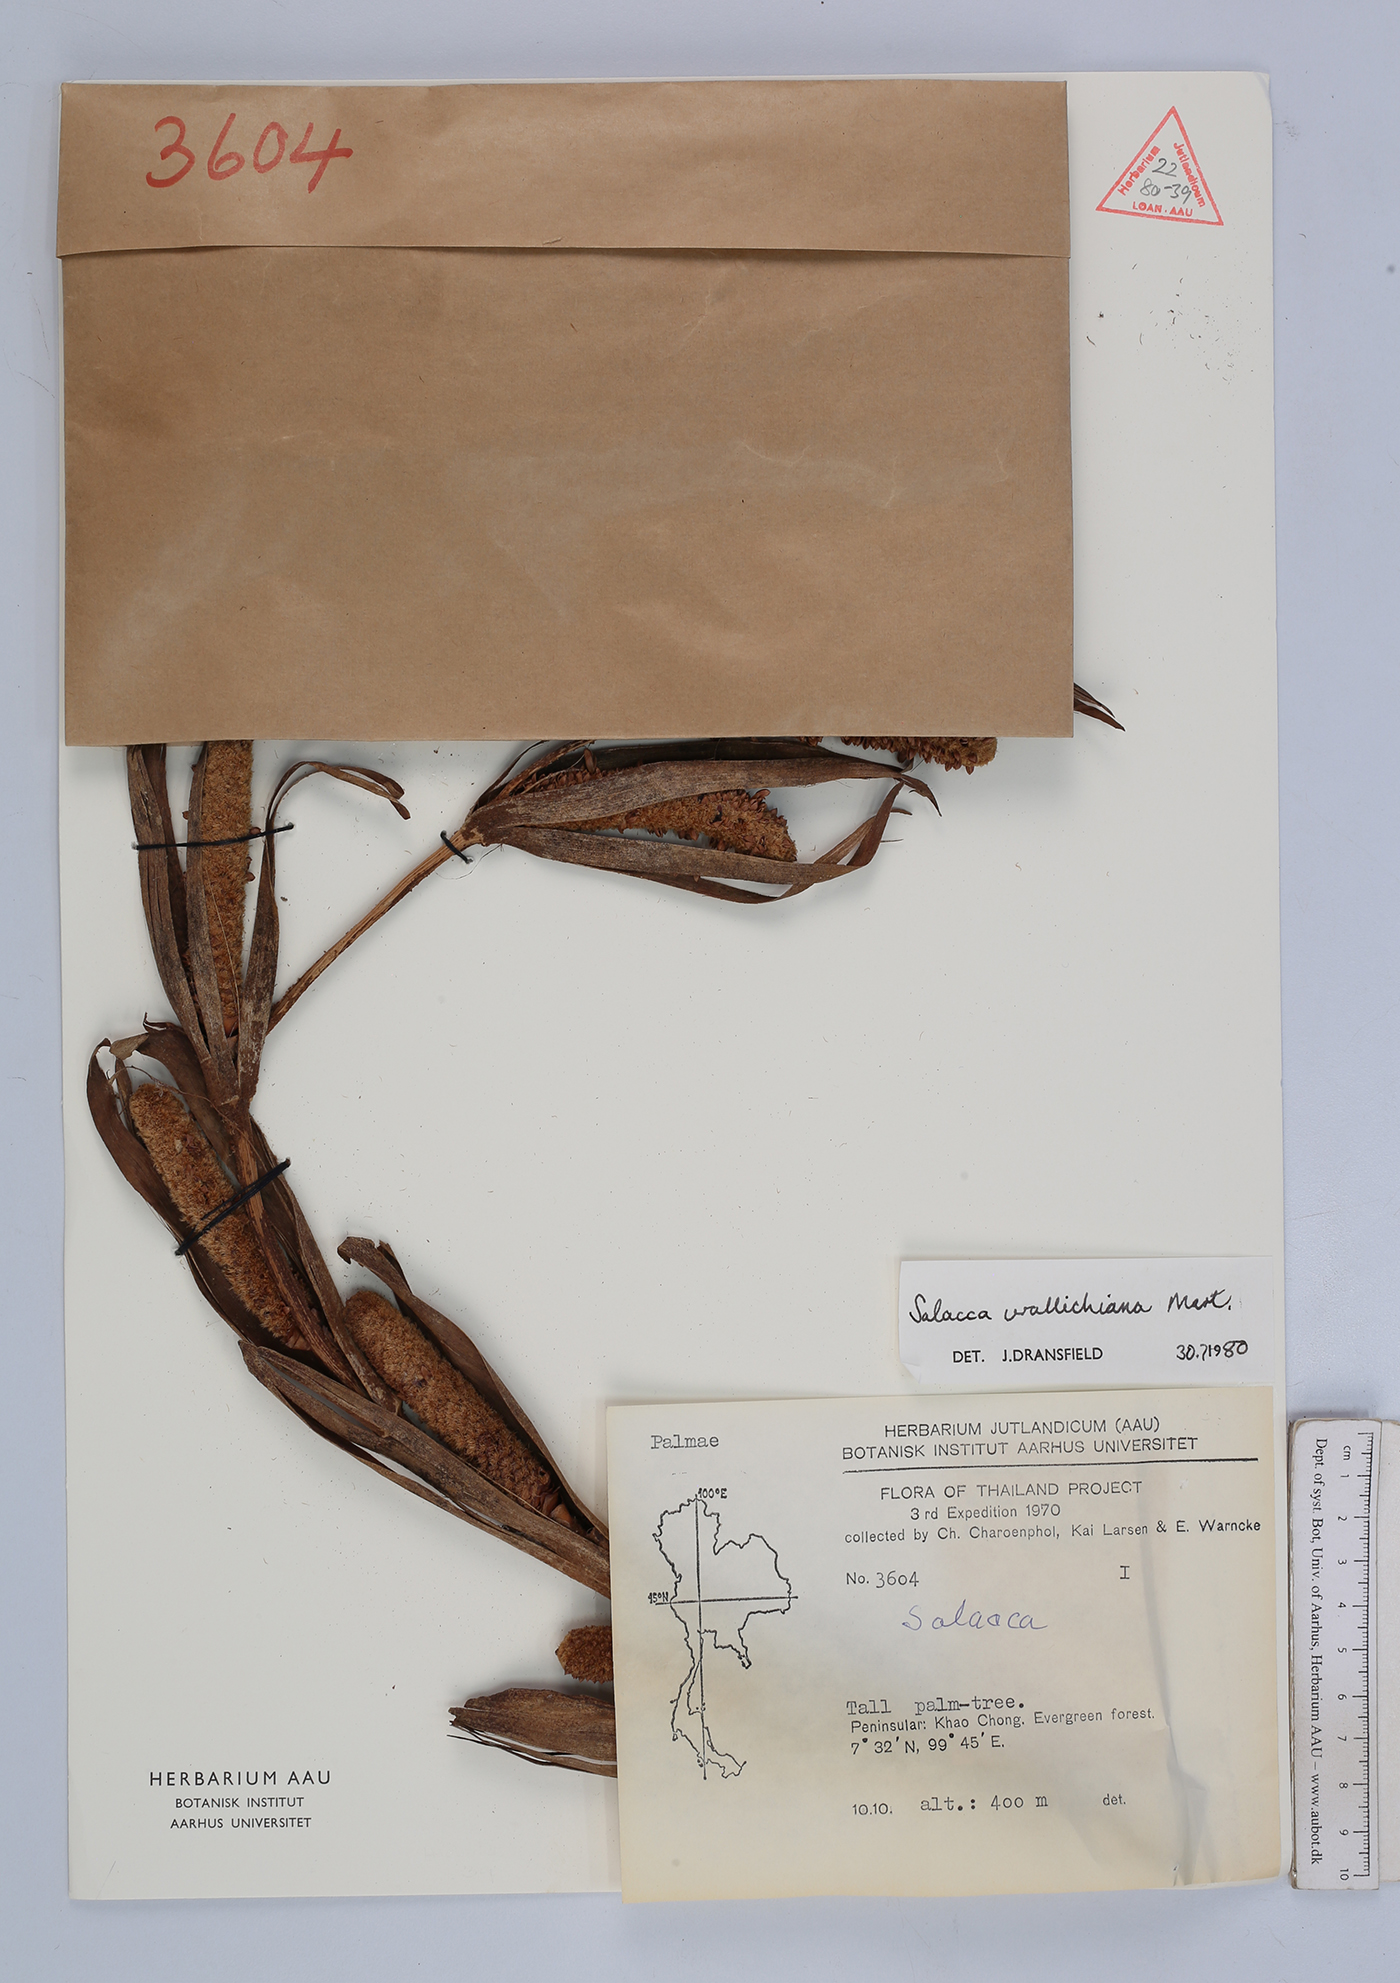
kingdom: Plantae
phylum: Tracheophyta
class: Liliopsida
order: Arecales
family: Arecaceae
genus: Salacca
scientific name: Salacca wallichiana
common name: Rakum palm
